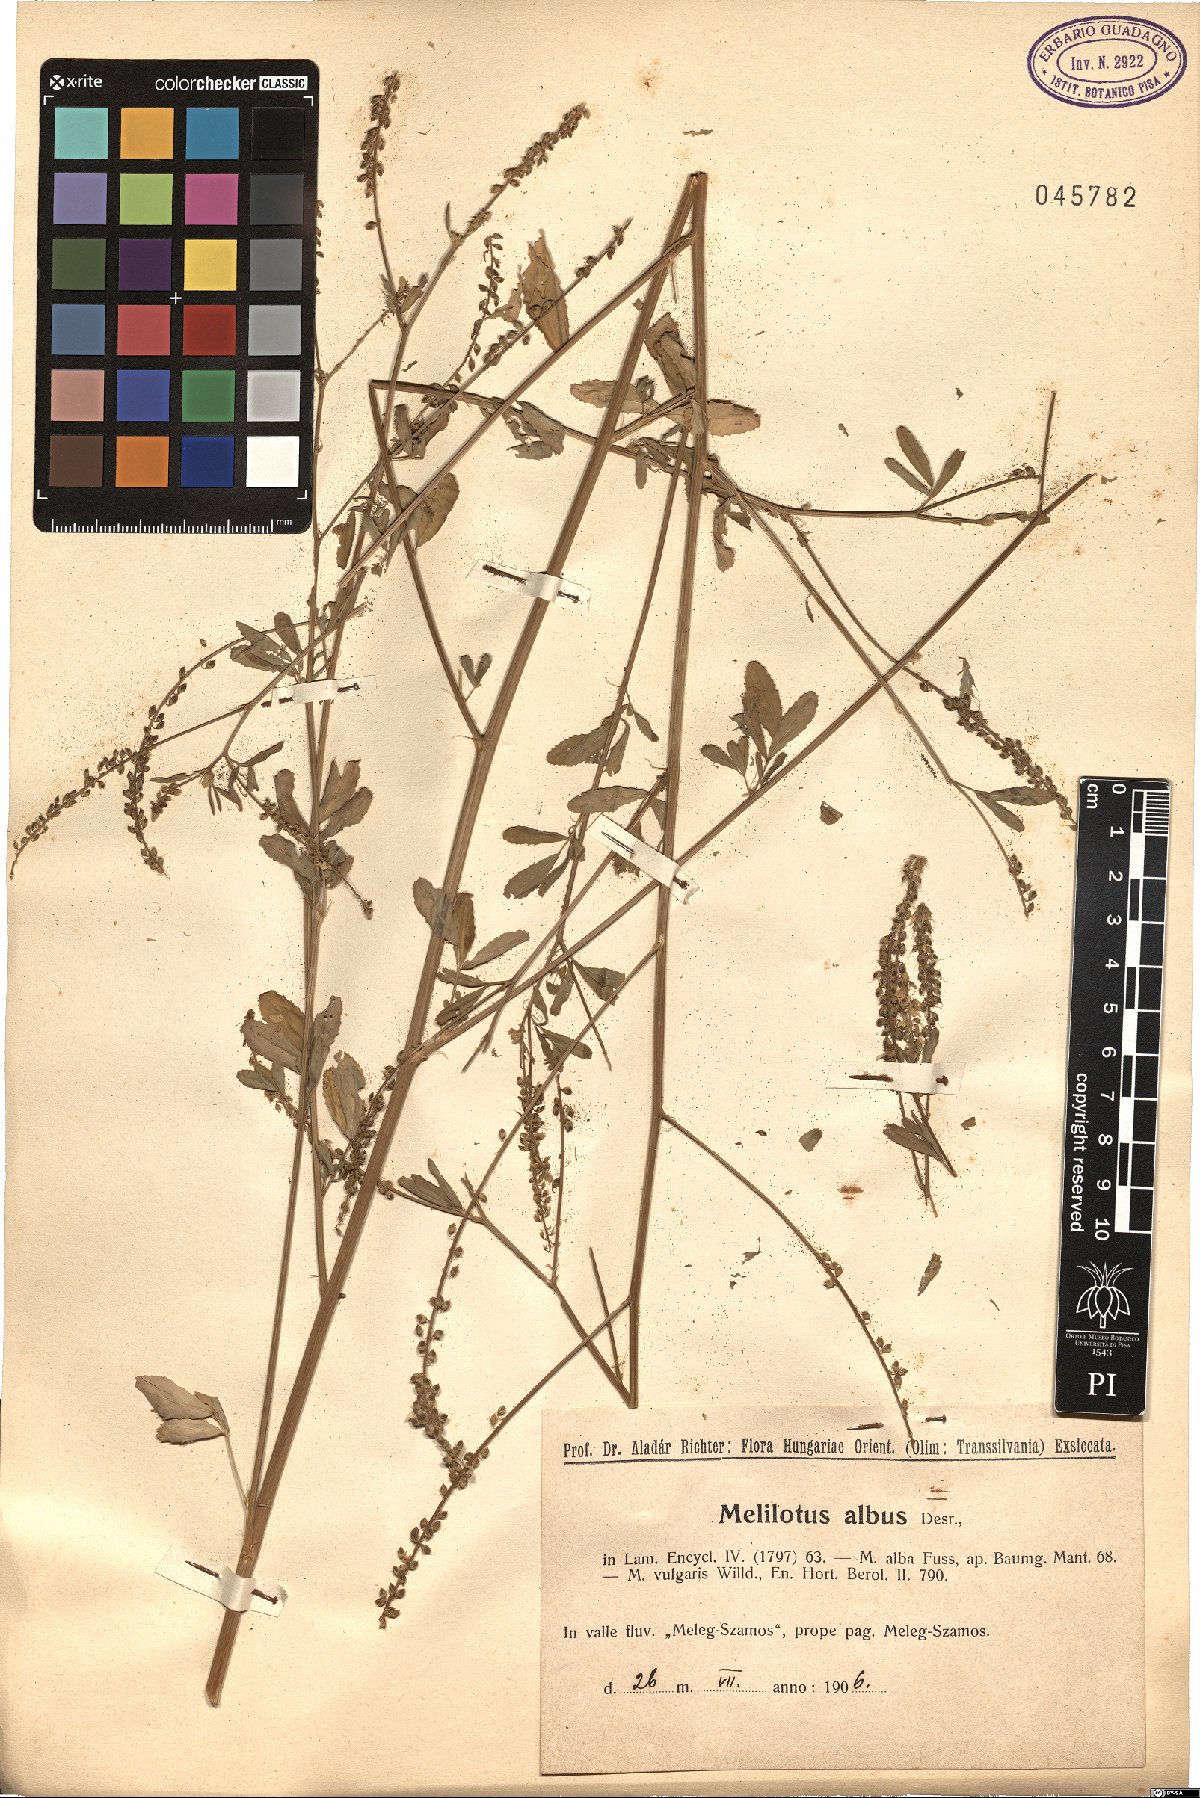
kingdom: Plantae
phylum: Tracheophyta
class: Magnoliopsida
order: Fabales
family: Fabaceae
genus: Melilotus
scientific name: Melilotus albus
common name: White melilot
